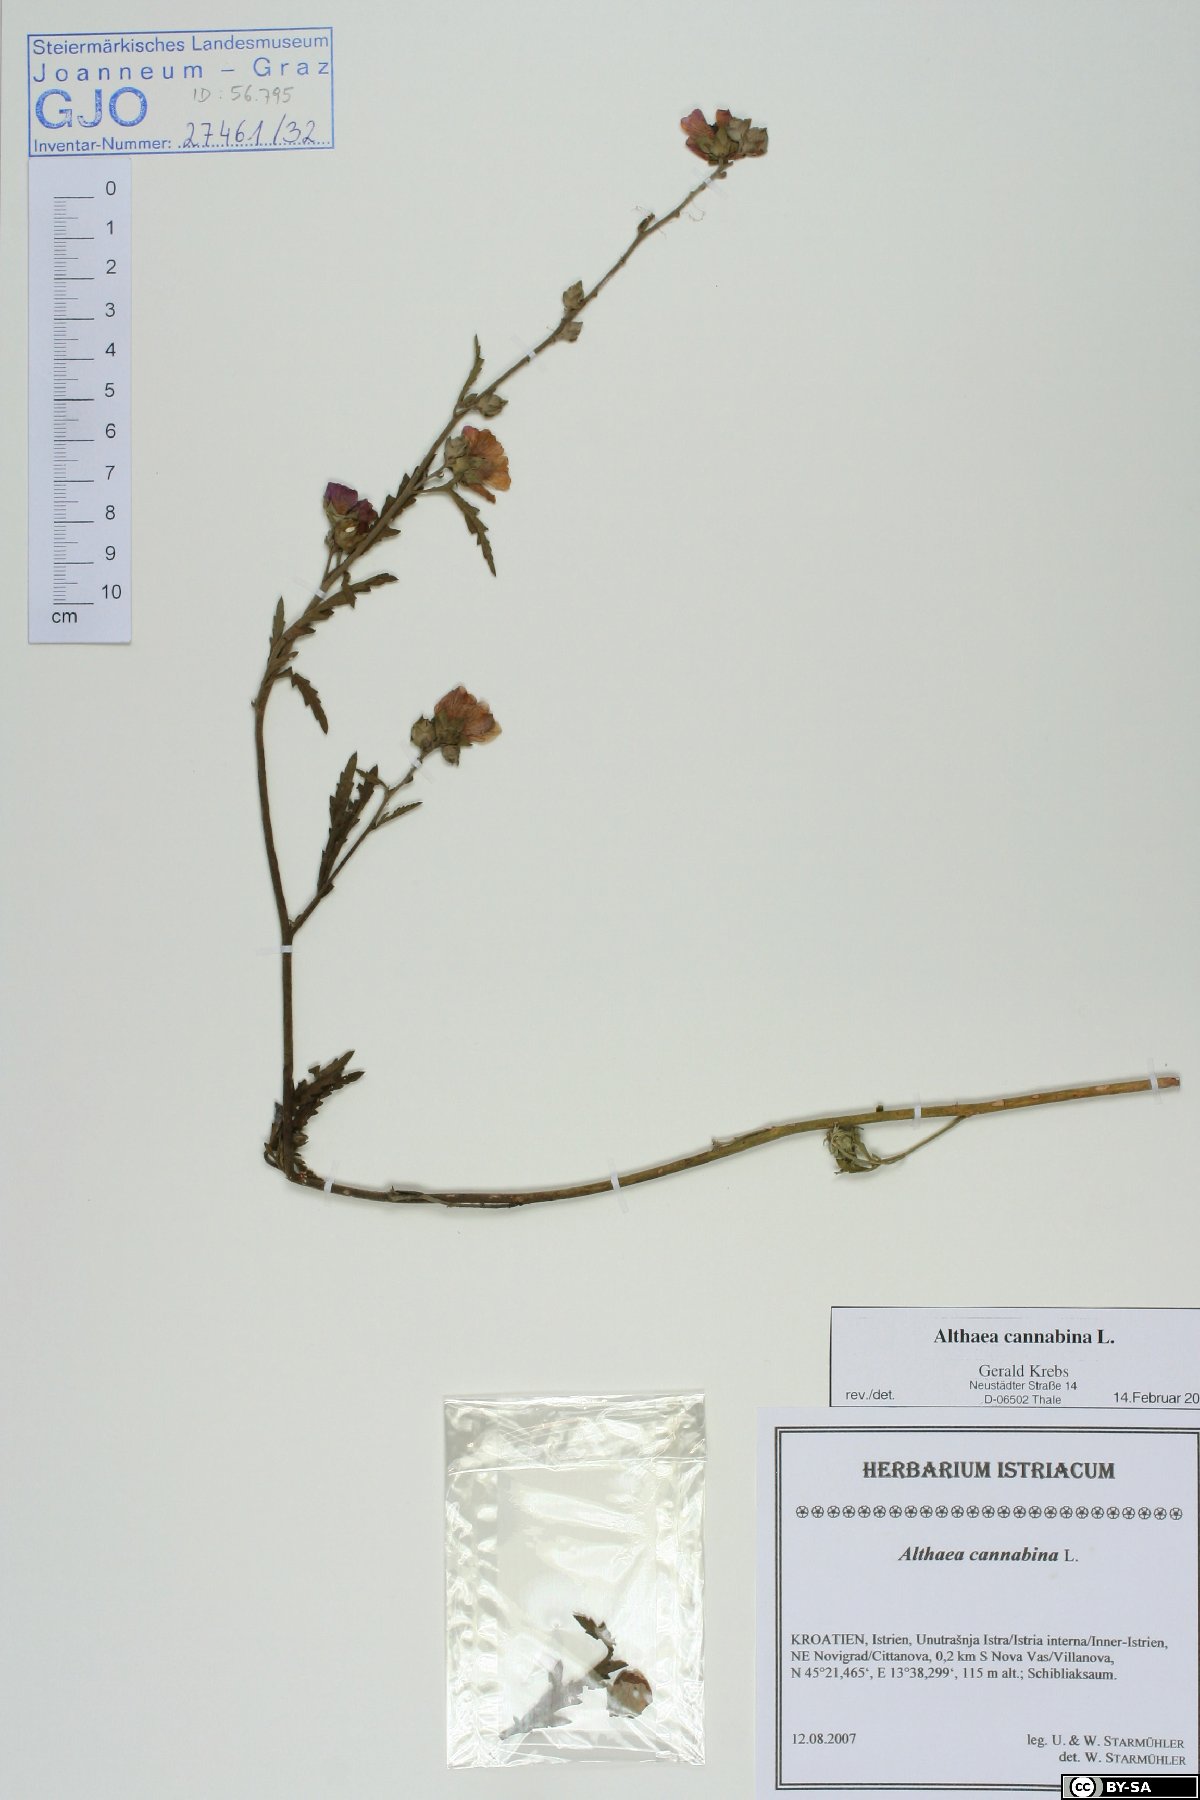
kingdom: Plantae
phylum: Tracheophyta
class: Magnoliopsida
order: Malvales
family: Malvaceae
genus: Althaea
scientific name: Althaea cannabina
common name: Palm-leaf marshmallow
